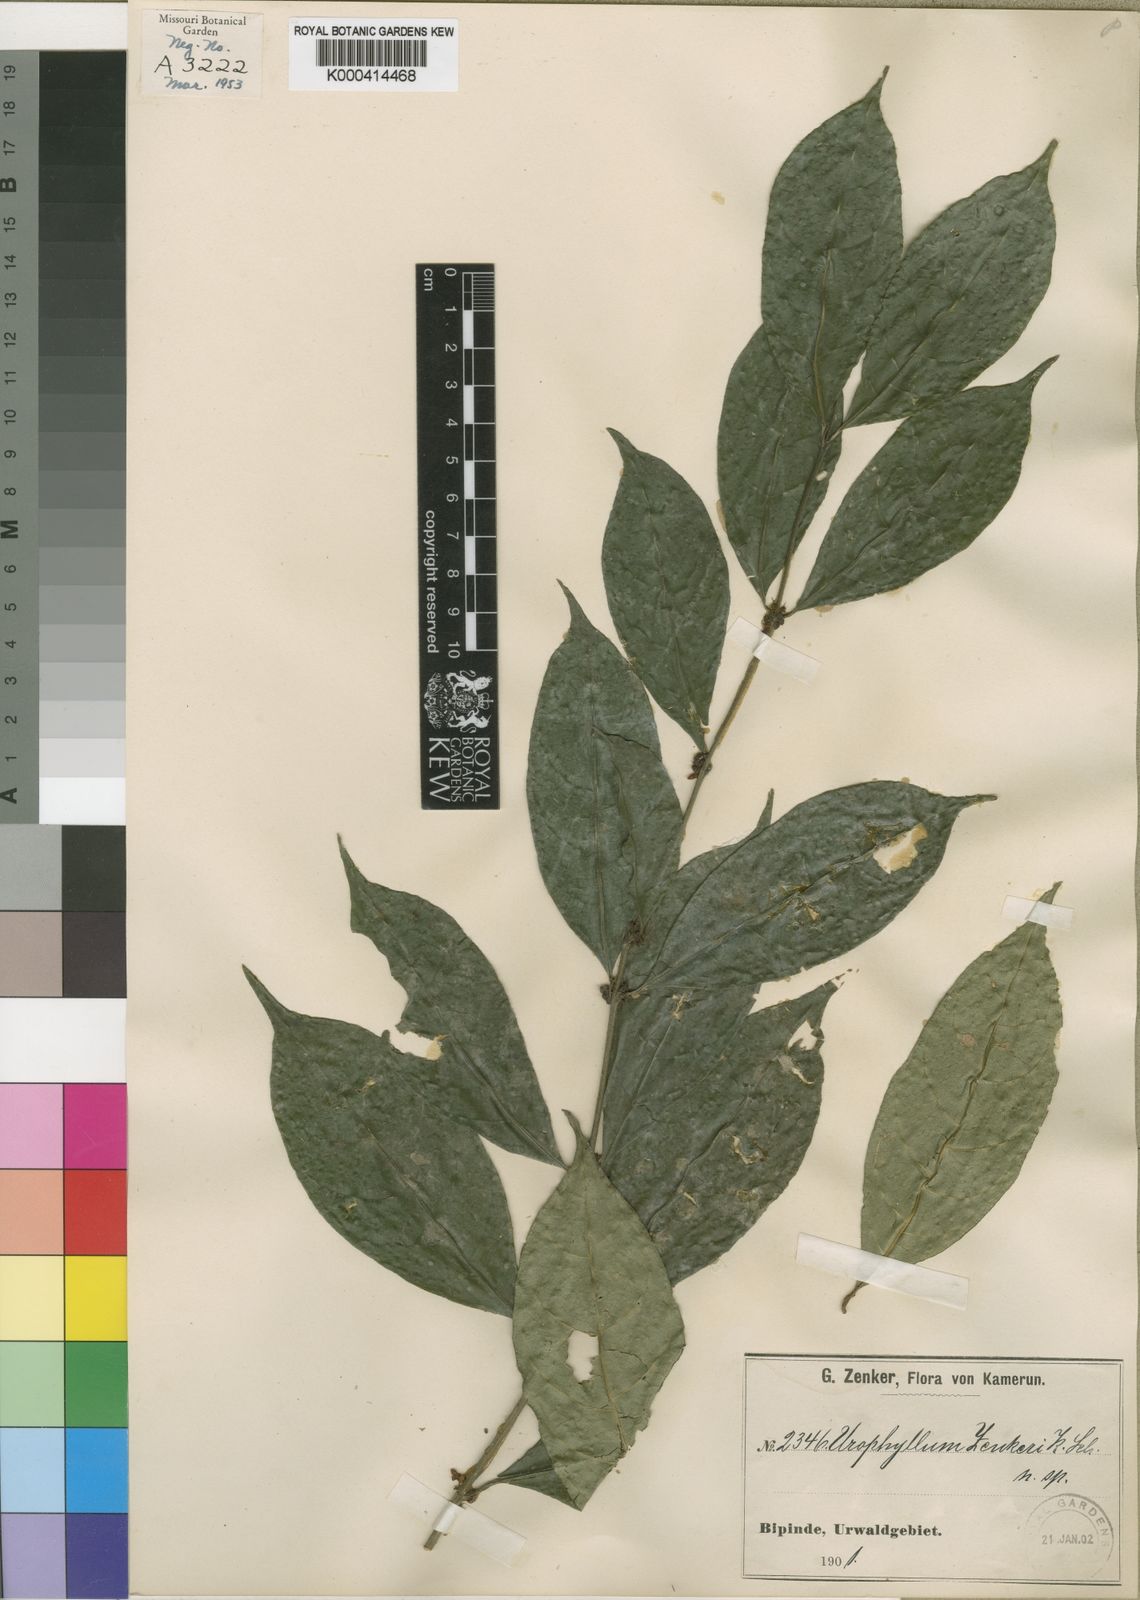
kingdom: Plantae
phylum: Tracheophyta
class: Magnoliopsida
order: Gentianales
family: Rubiaceae
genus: Pauridiantha
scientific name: Pauridiantha divaricata
